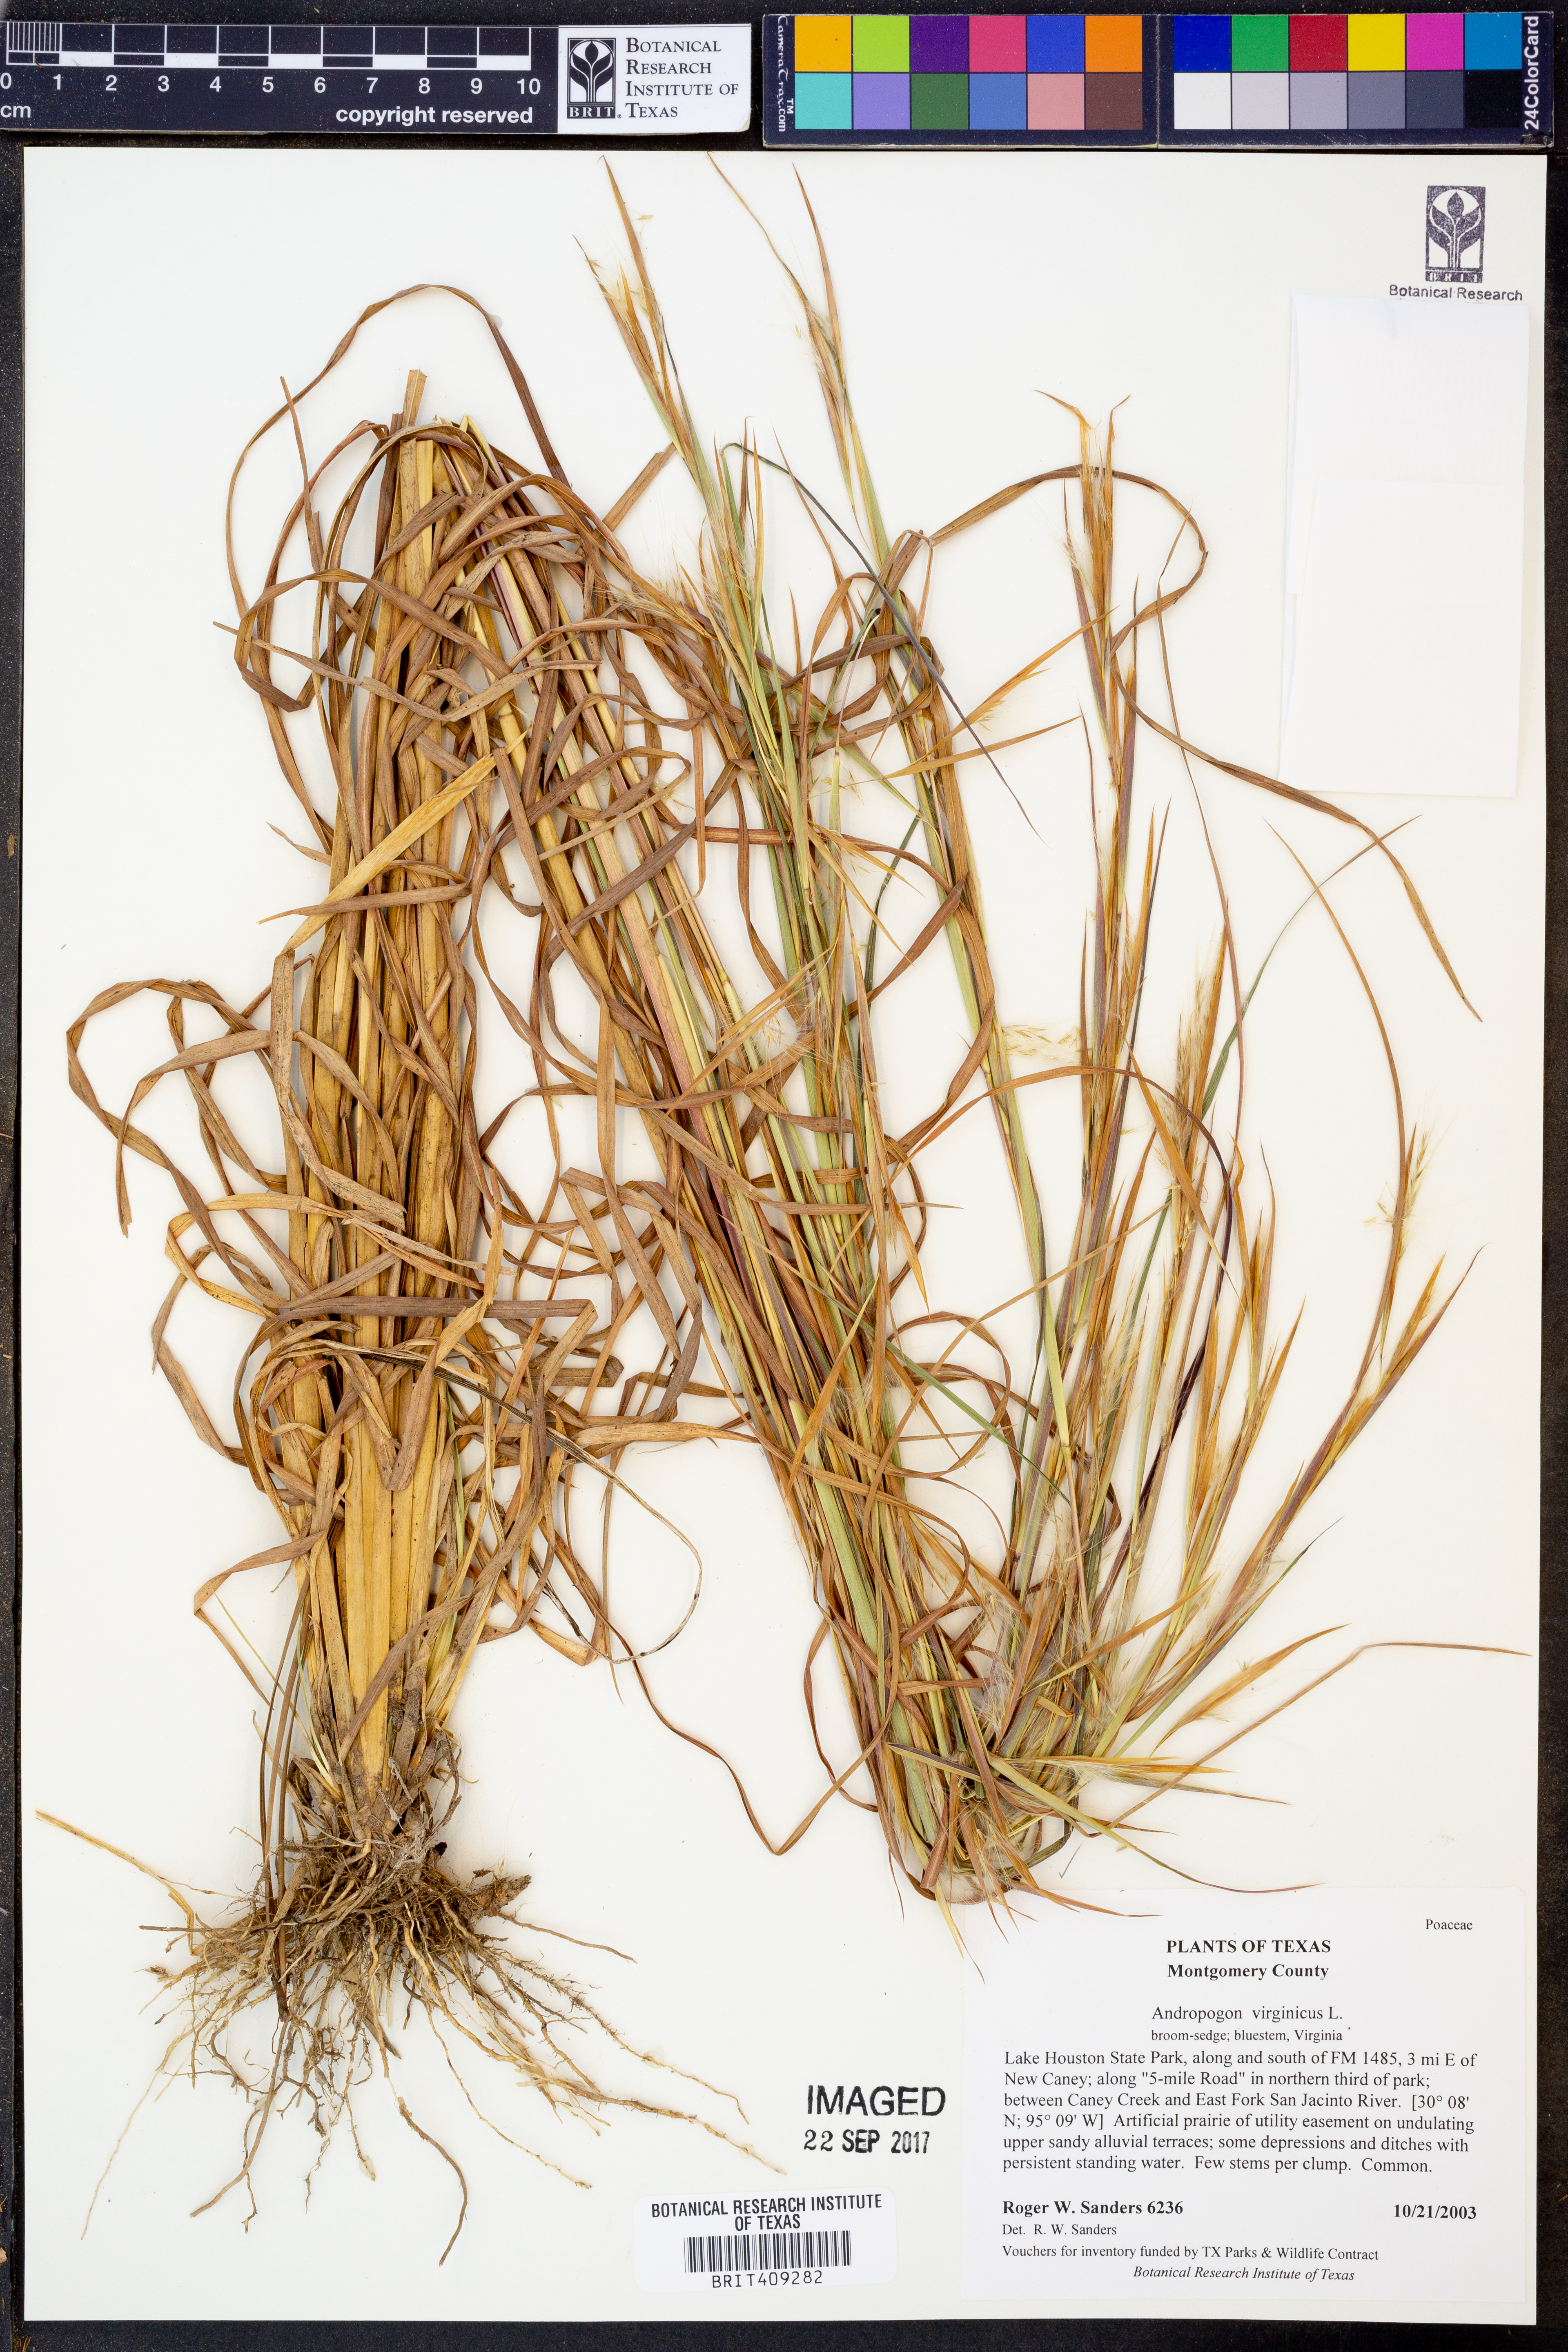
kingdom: Plantae
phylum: Tracheophyta
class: Liliopsida
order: Poales
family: Poaceae
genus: Andropogon
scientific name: Andropogon virginicus
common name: Broomsedge bluestem
